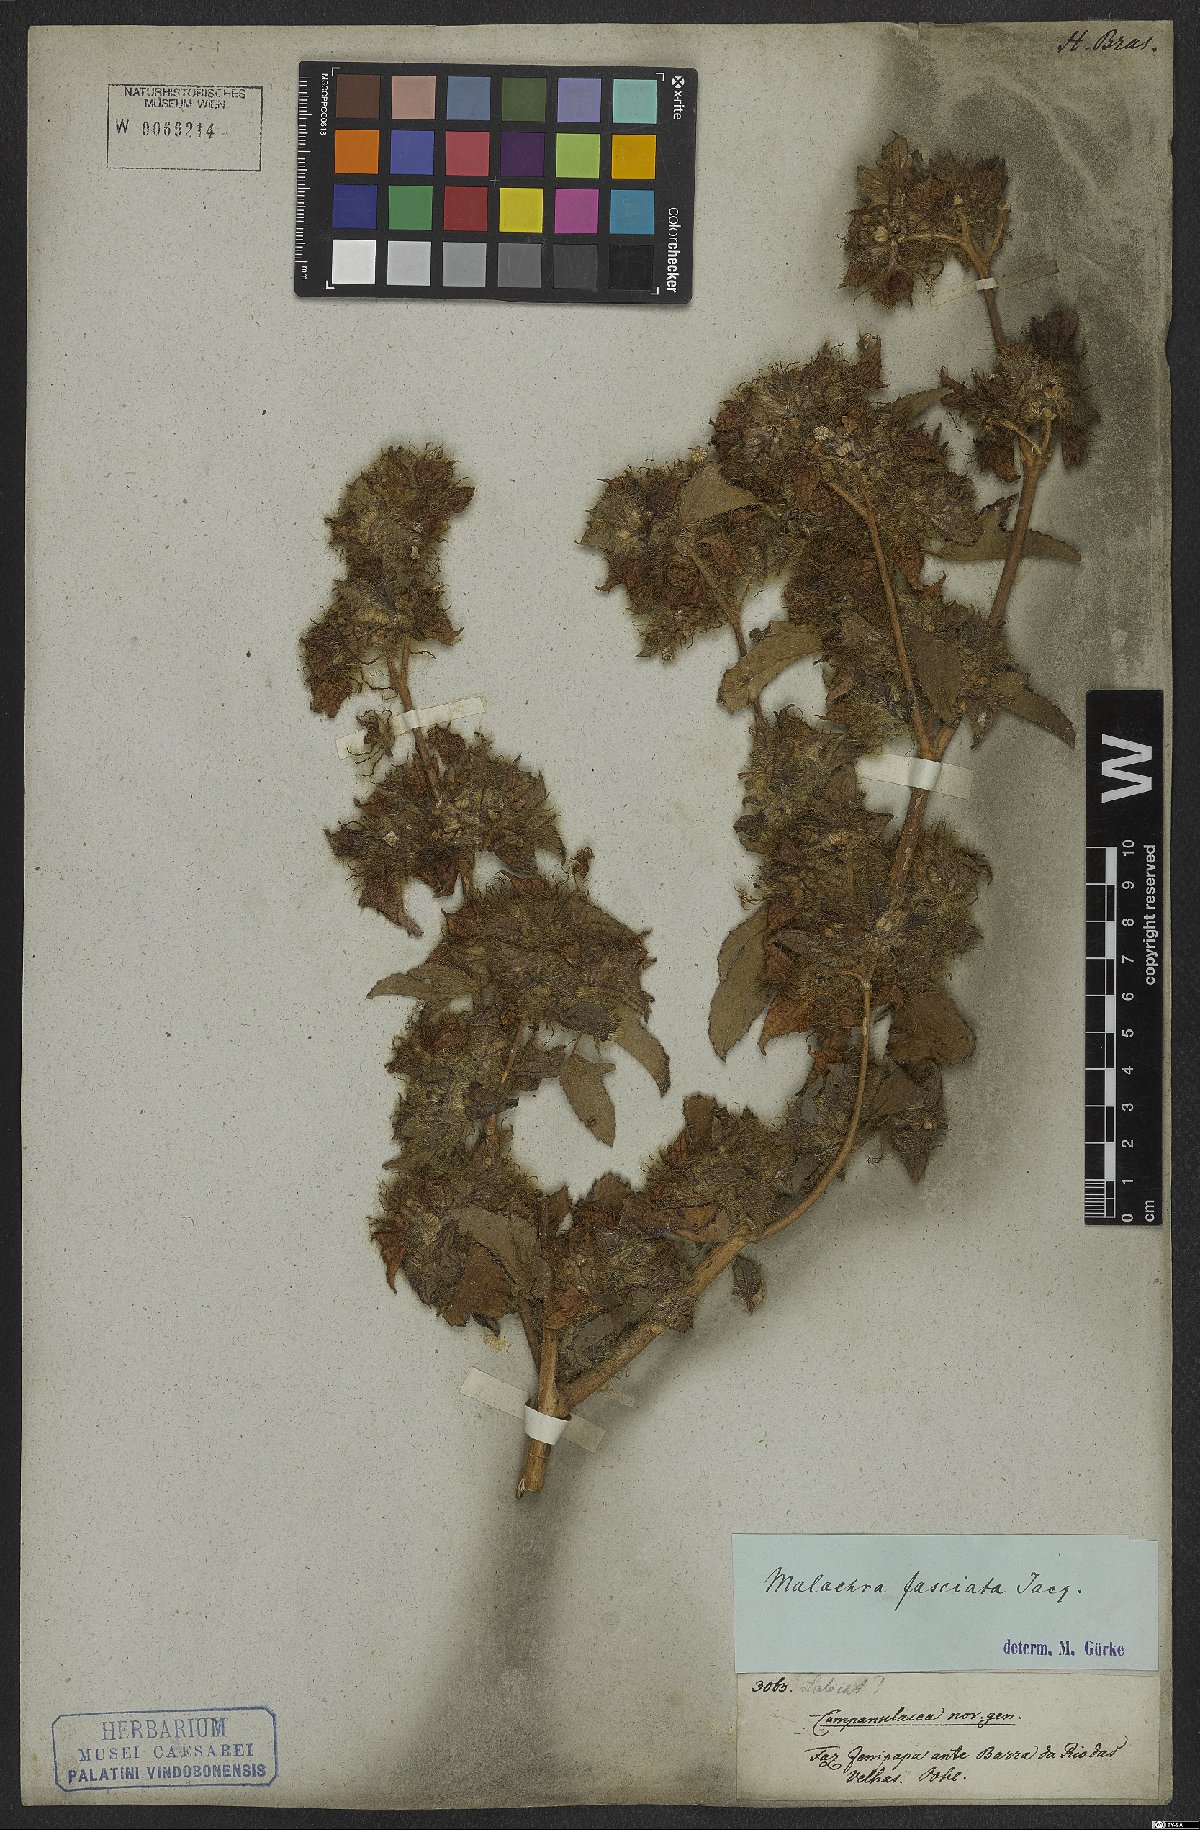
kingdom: Plantae
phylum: Tracheophyta
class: Magnoliopsida
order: Malvales
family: Malvaceae
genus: Malachra
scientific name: Malachra fasciata
